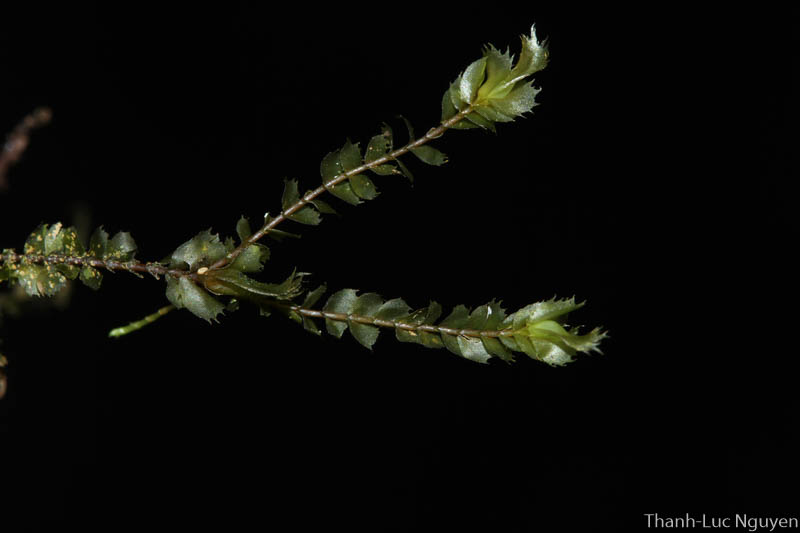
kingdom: Plantae
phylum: Marchantiophyta
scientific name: Marchantiophyta
